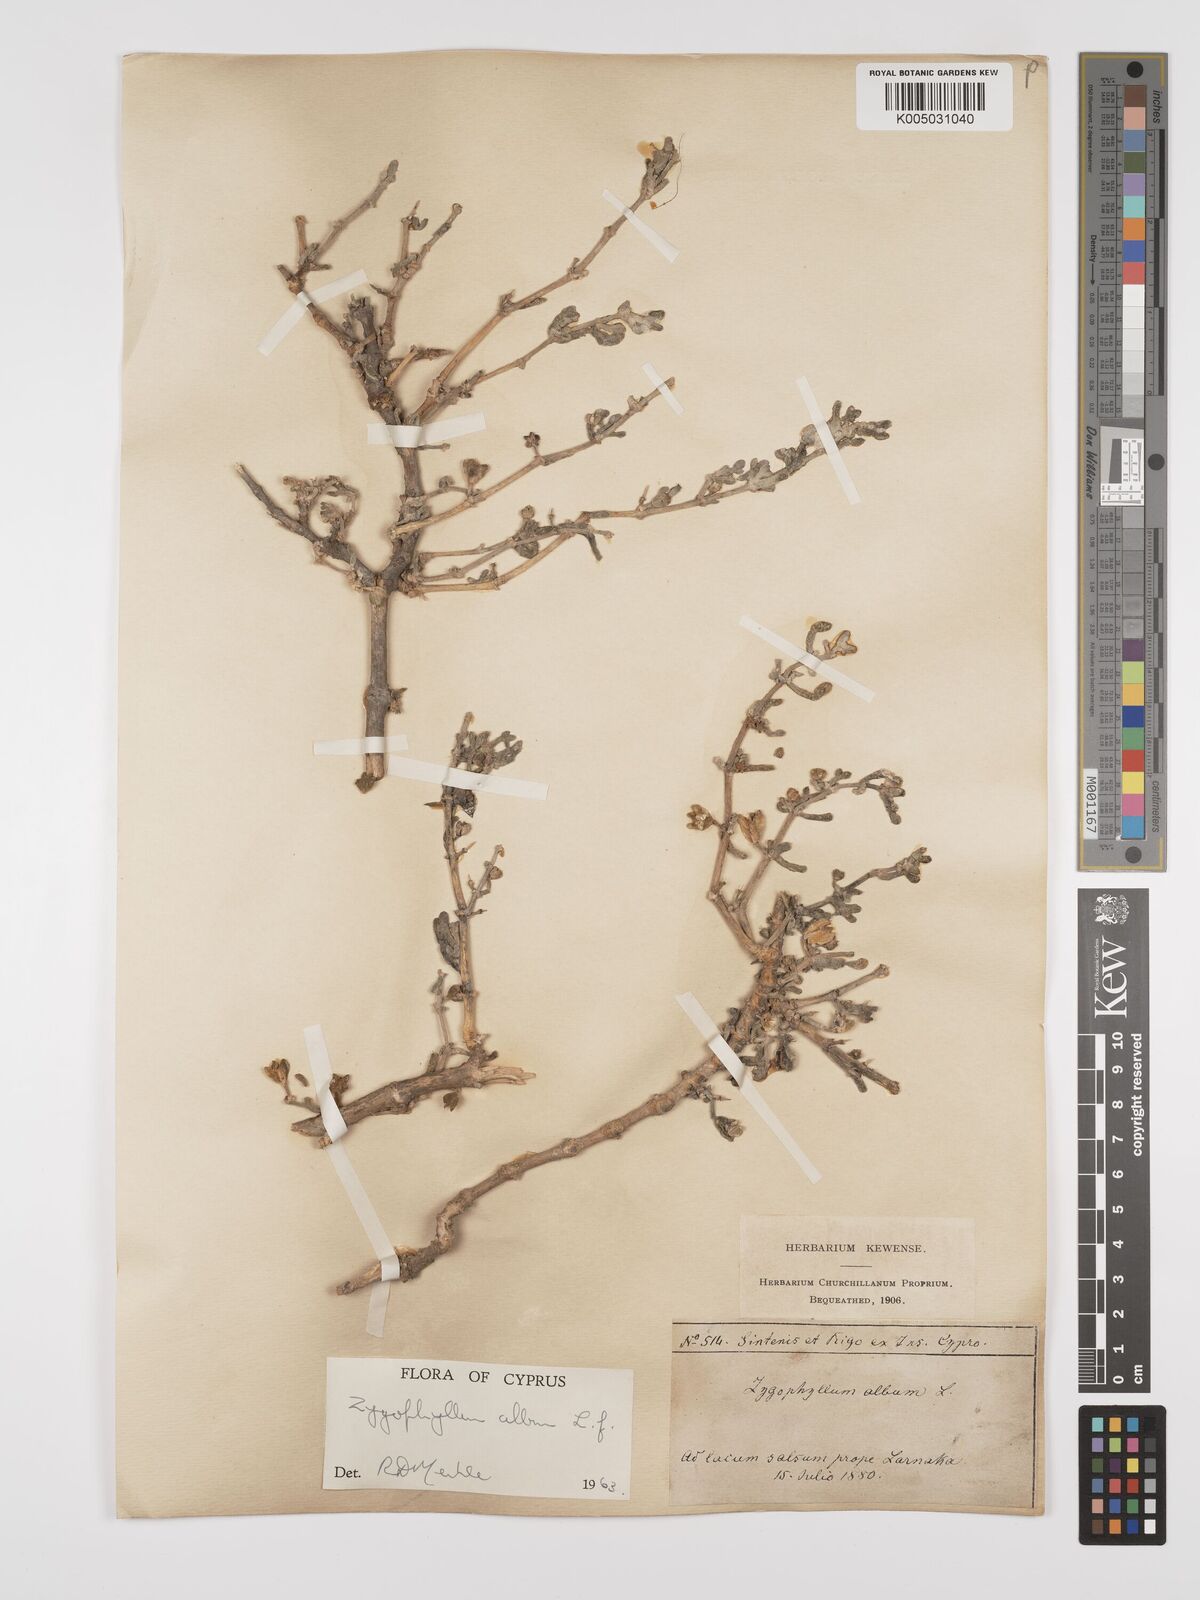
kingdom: Plantae
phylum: Tracheophyta
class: Magnoliopsida
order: Zygophyllales
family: Zygophyllaceae
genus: Zygophyllum
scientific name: Zygophyllum
